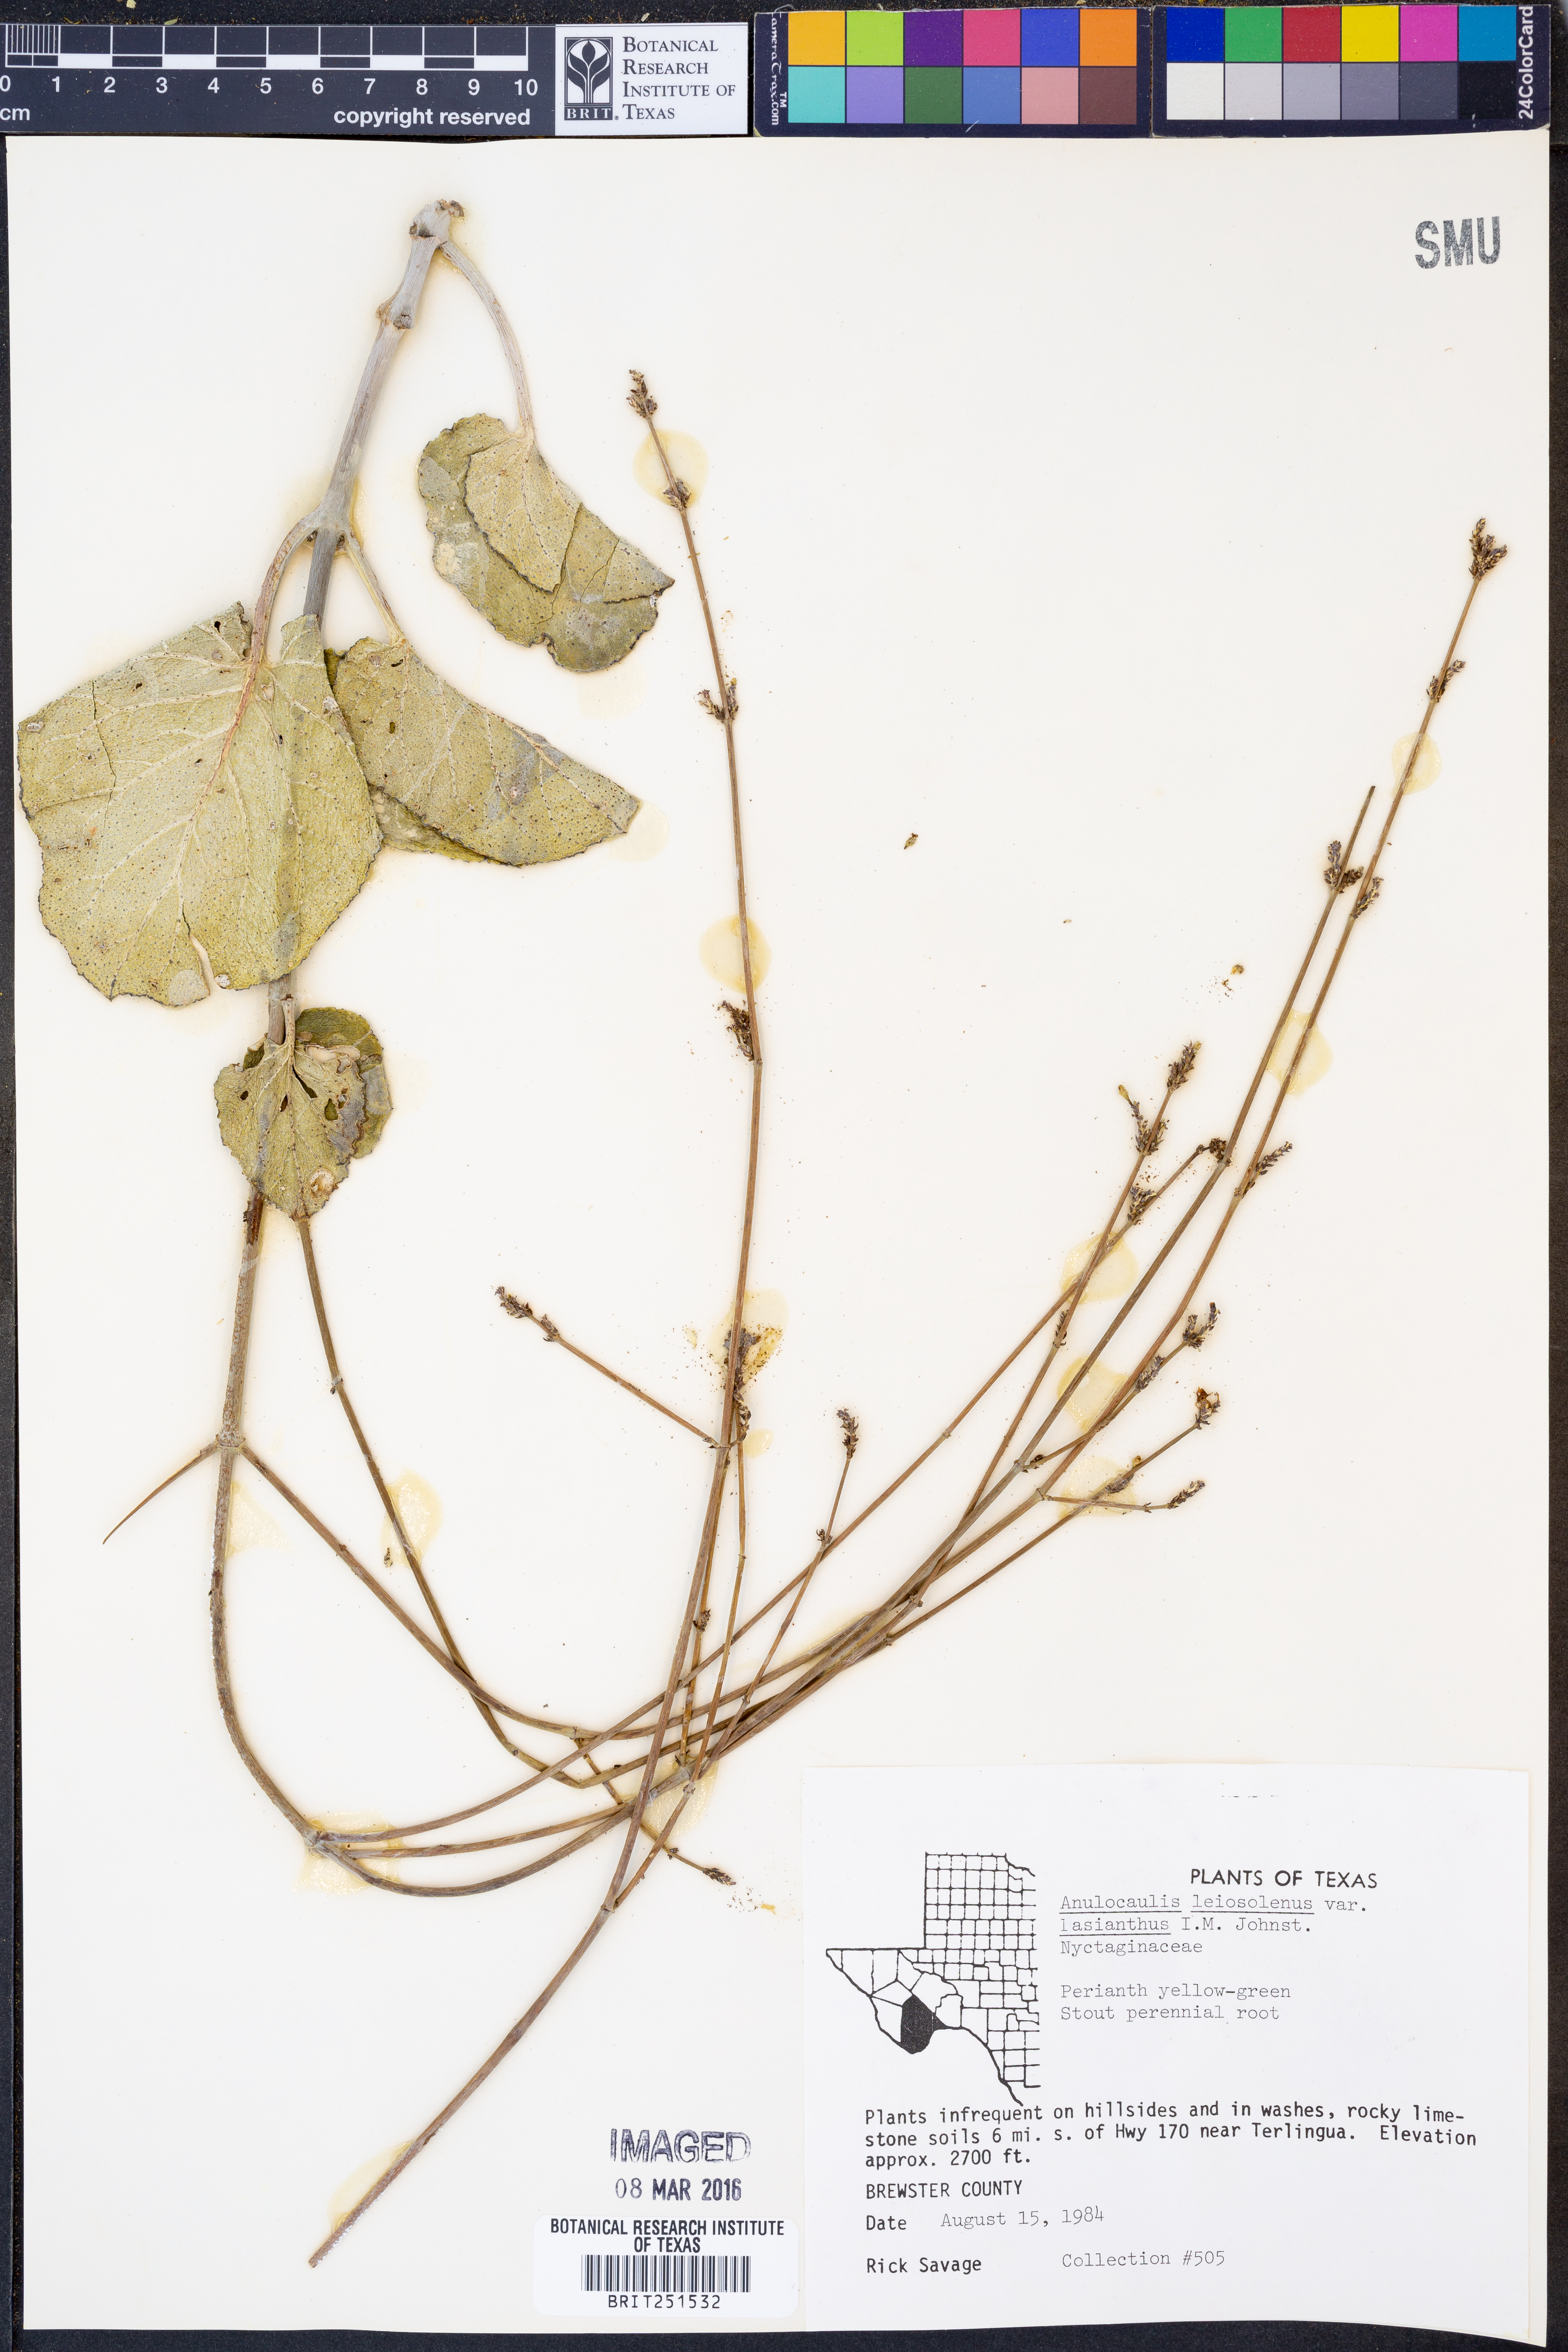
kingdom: Plantae
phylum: Tracheophyta
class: Magnoliopsida
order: Caryophyllales
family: Nyctaginaceae
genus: Anulocaulis
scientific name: Anulocaulis leiosolenus
